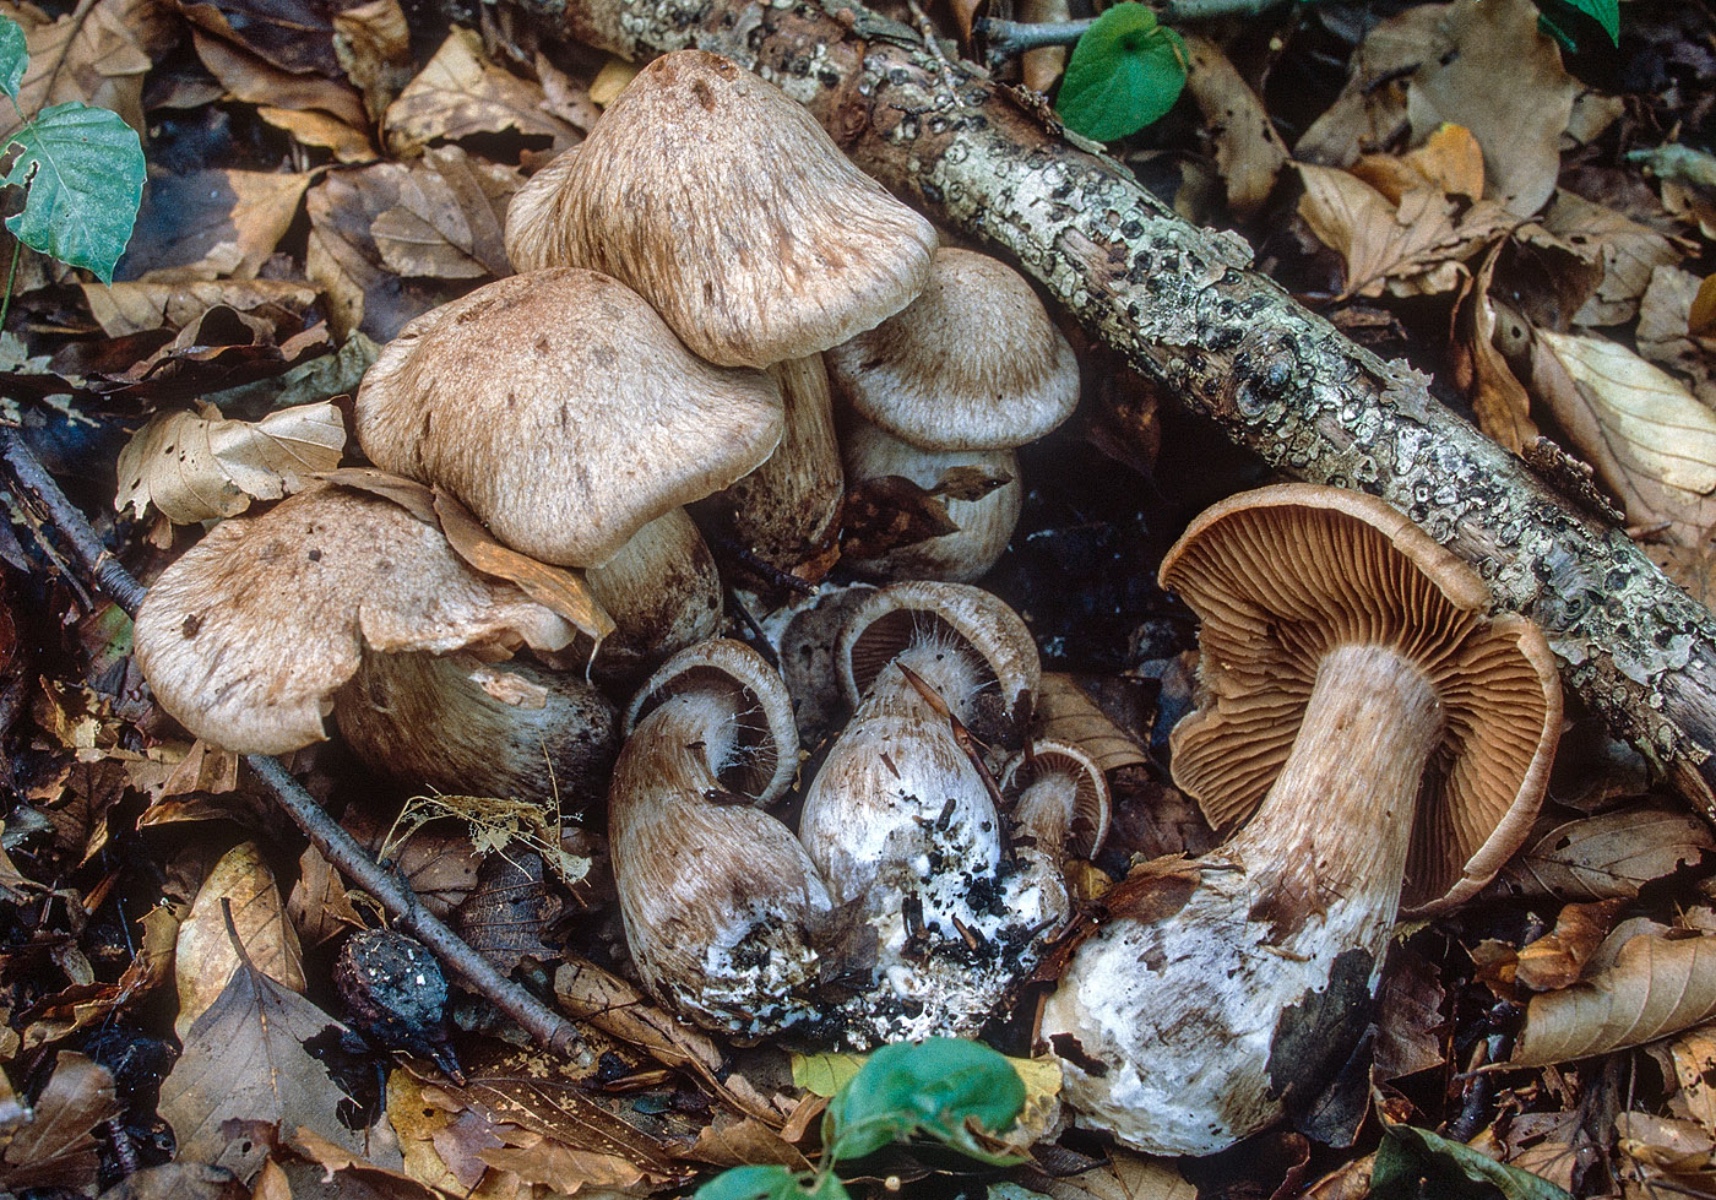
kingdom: Fungi
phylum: Basidiomycota
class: Agaricomycetes
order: Agaricales
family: Cortinariaceae
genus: Cortinarius
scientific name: Cortinarius
